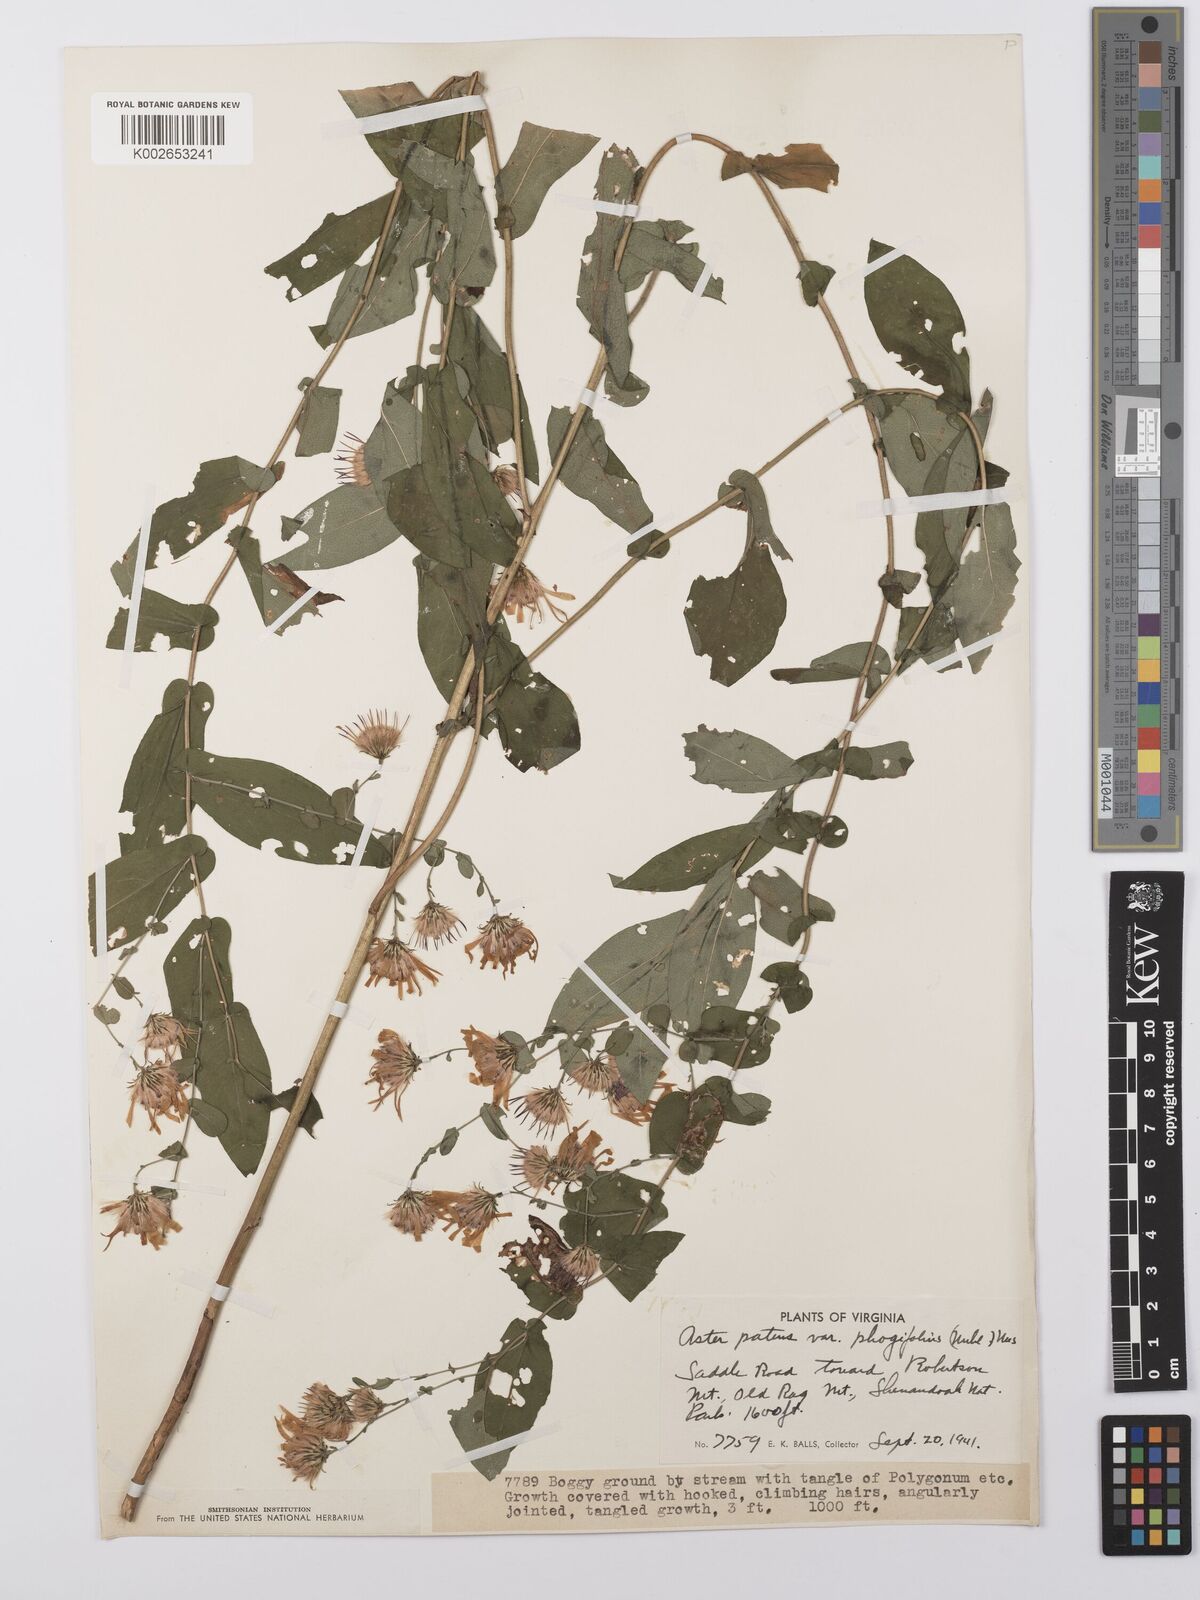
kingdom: Plantae
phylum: Tracheophyta
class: Magnoliopsida
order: Asterales
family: Asteraceae
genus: Symphyotrichum
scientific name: Symphyotrichum phlogifolium
